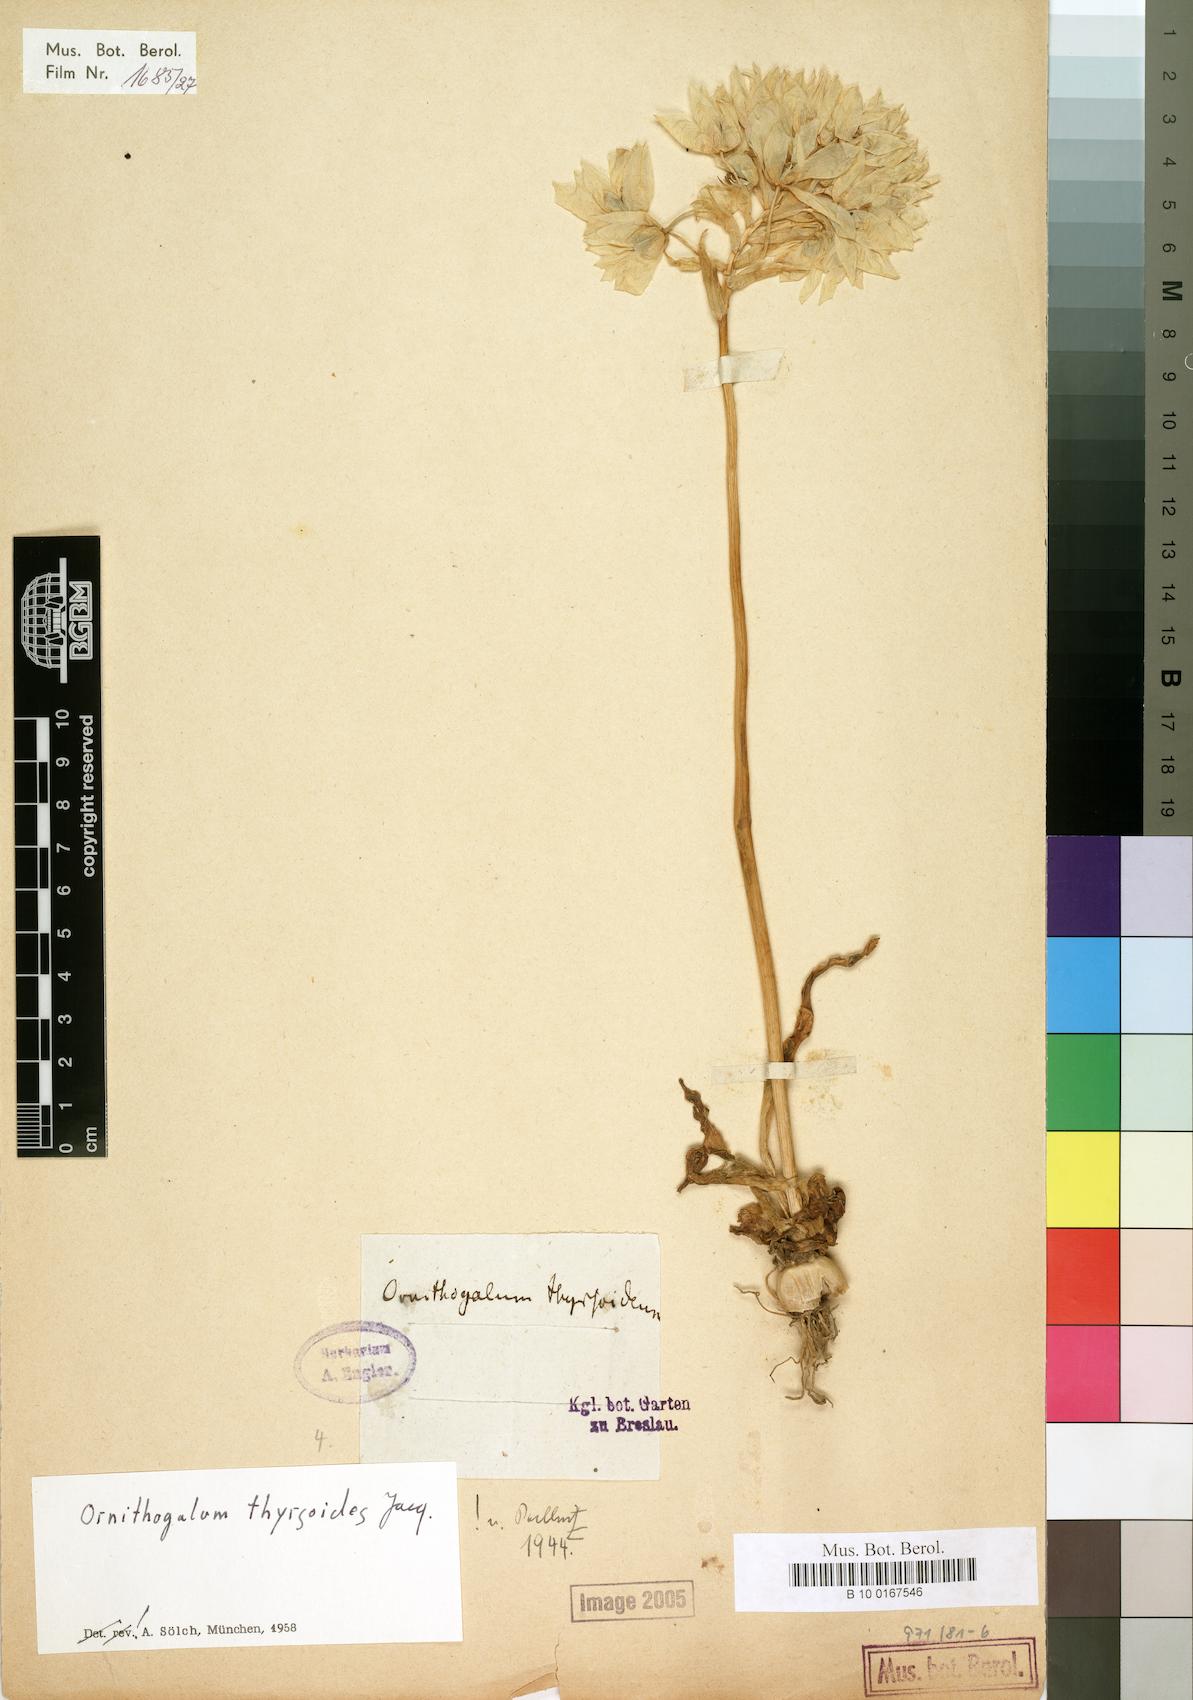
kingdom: Plantae
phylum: Tracheophyta
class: Liliopsida
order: Asparagales
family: Asparagaceae
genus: Ornithogalum
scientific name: Ornithogalum thyrsoides
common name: Chincherinchee
